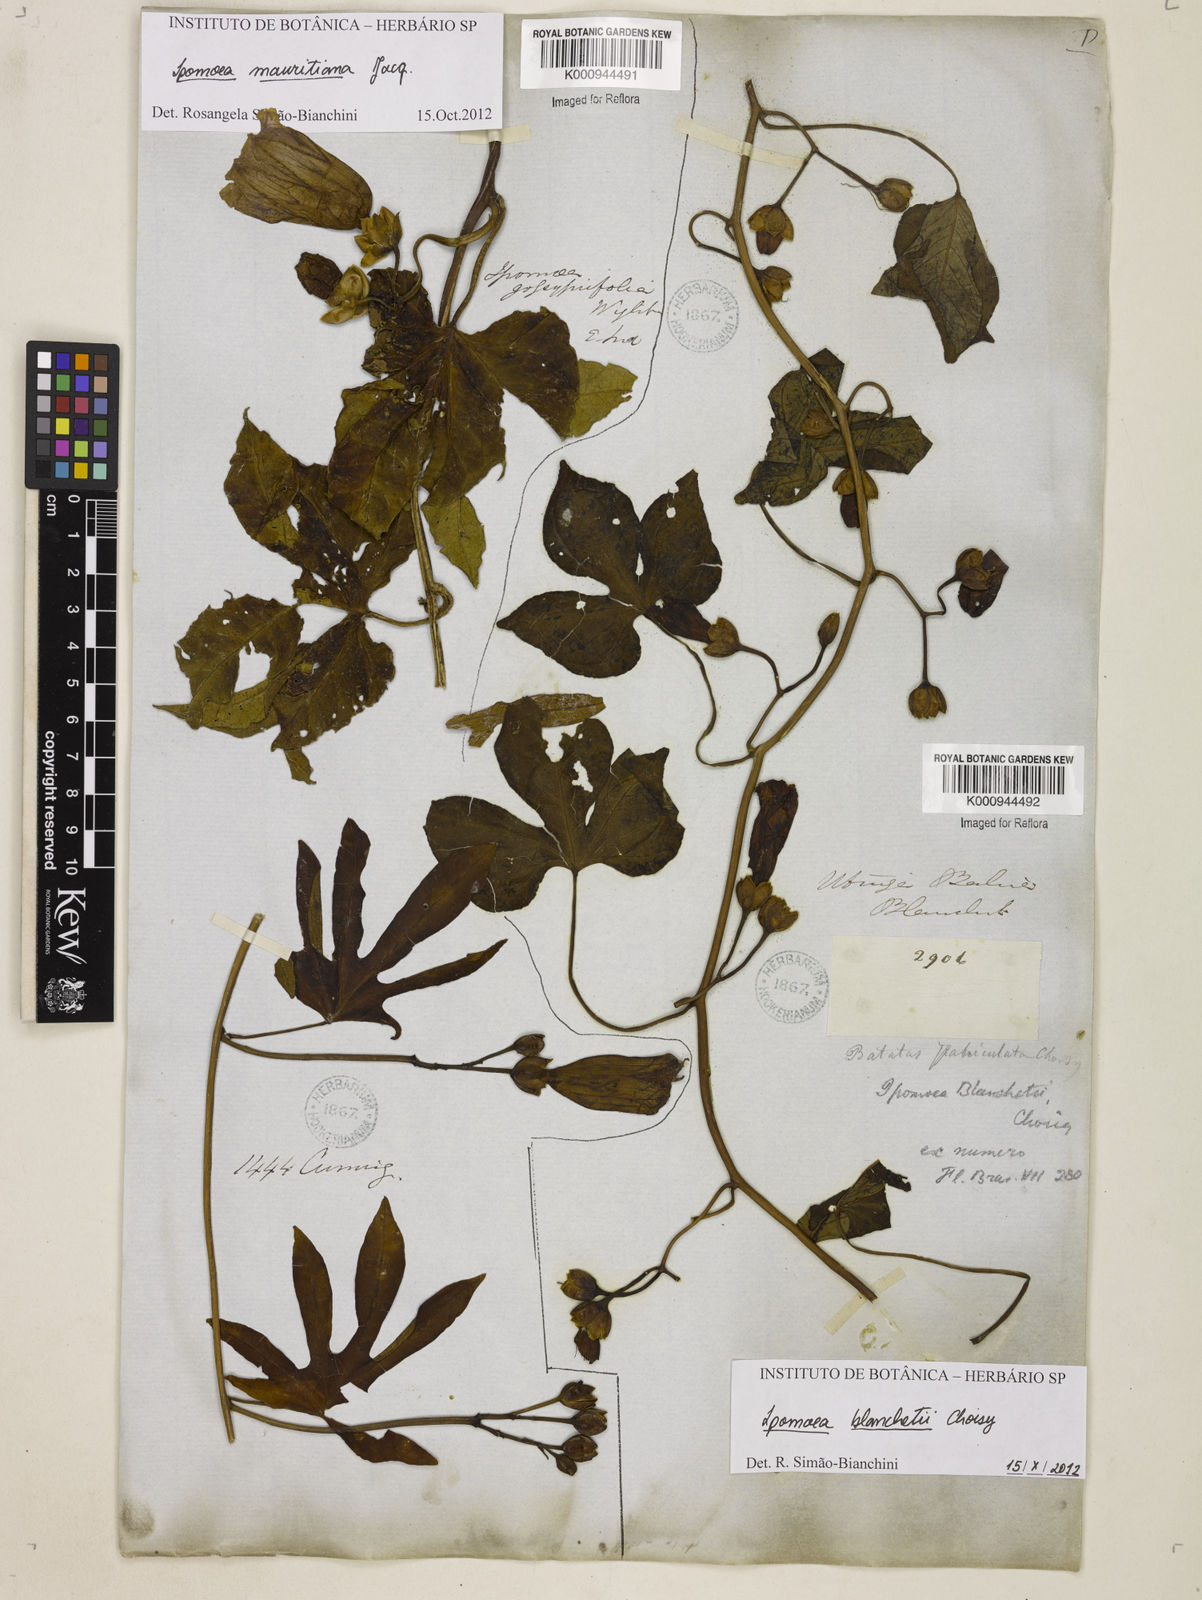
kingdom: Plantae
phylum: Tracheophyta
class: Magnoliopsida
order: Solanales
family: Convolvulaceae
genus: Ipomoea
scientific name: Ipomoea blanchetii
